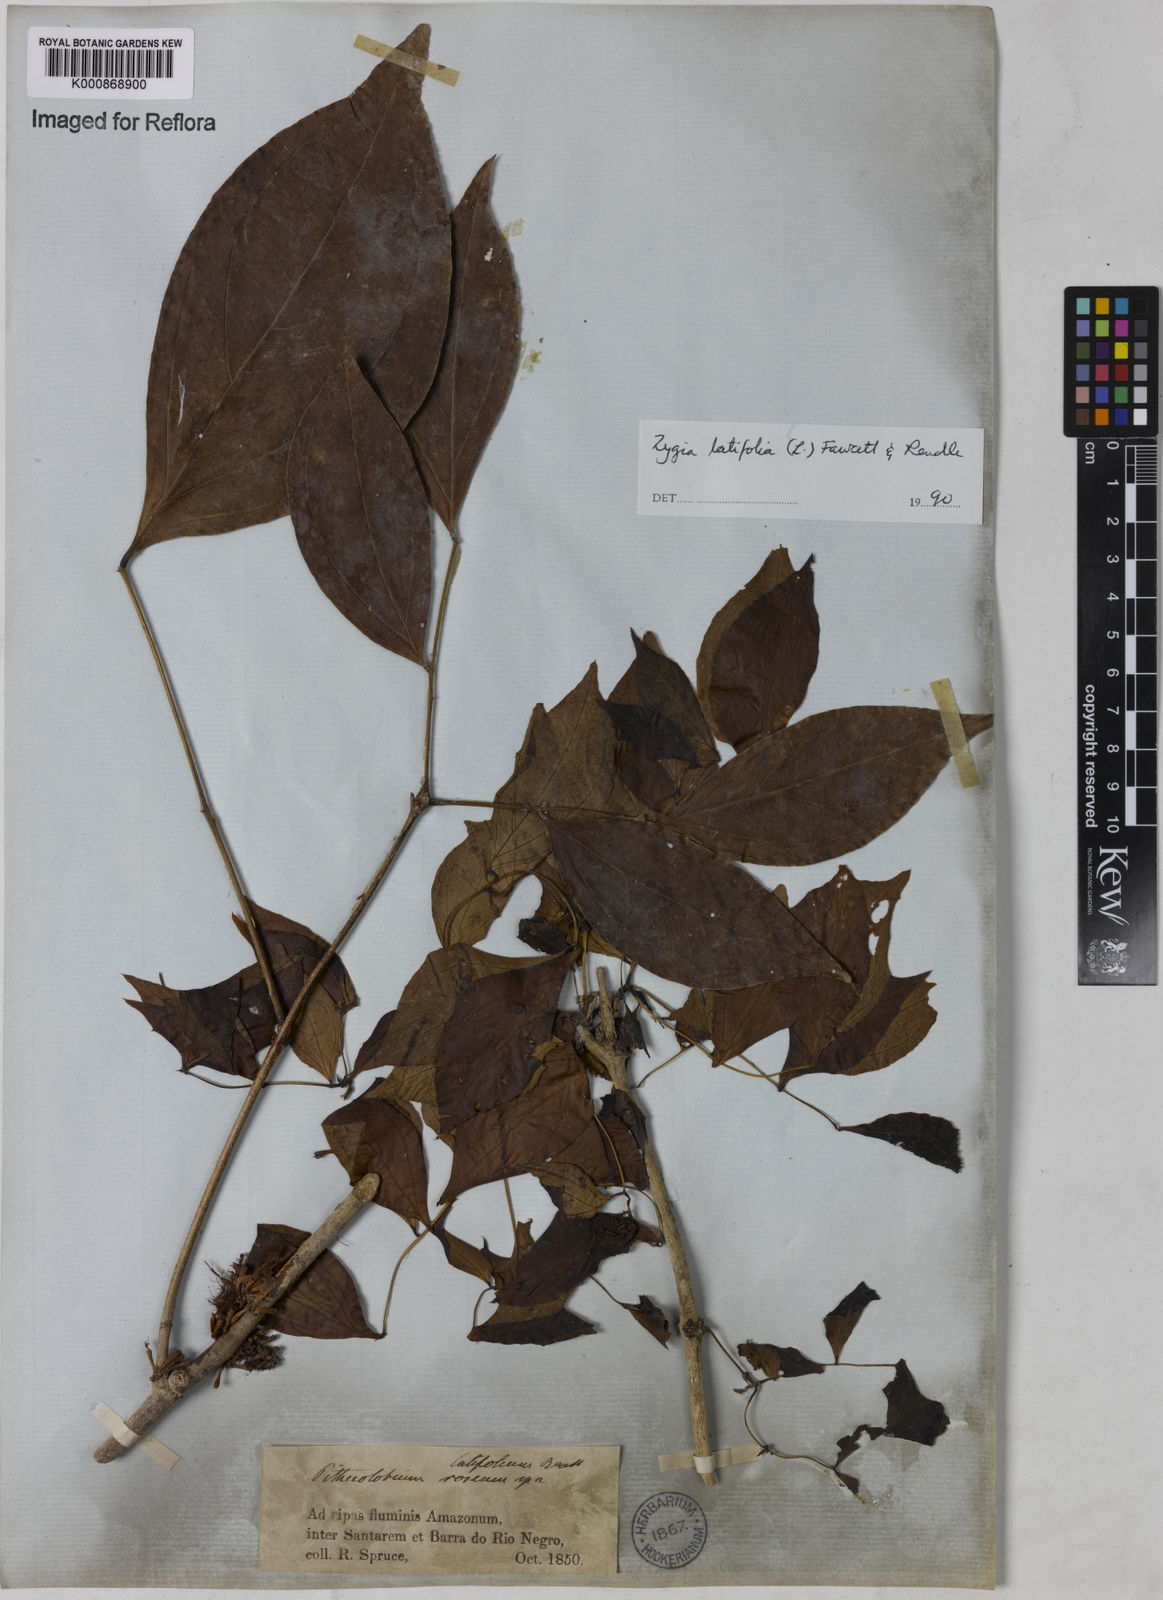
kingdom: Plantae
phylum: Tracheophyta
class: Magnoliopsida
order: Fabales
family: Fabaceae
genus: Zygia
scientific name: Zygia latifolia
